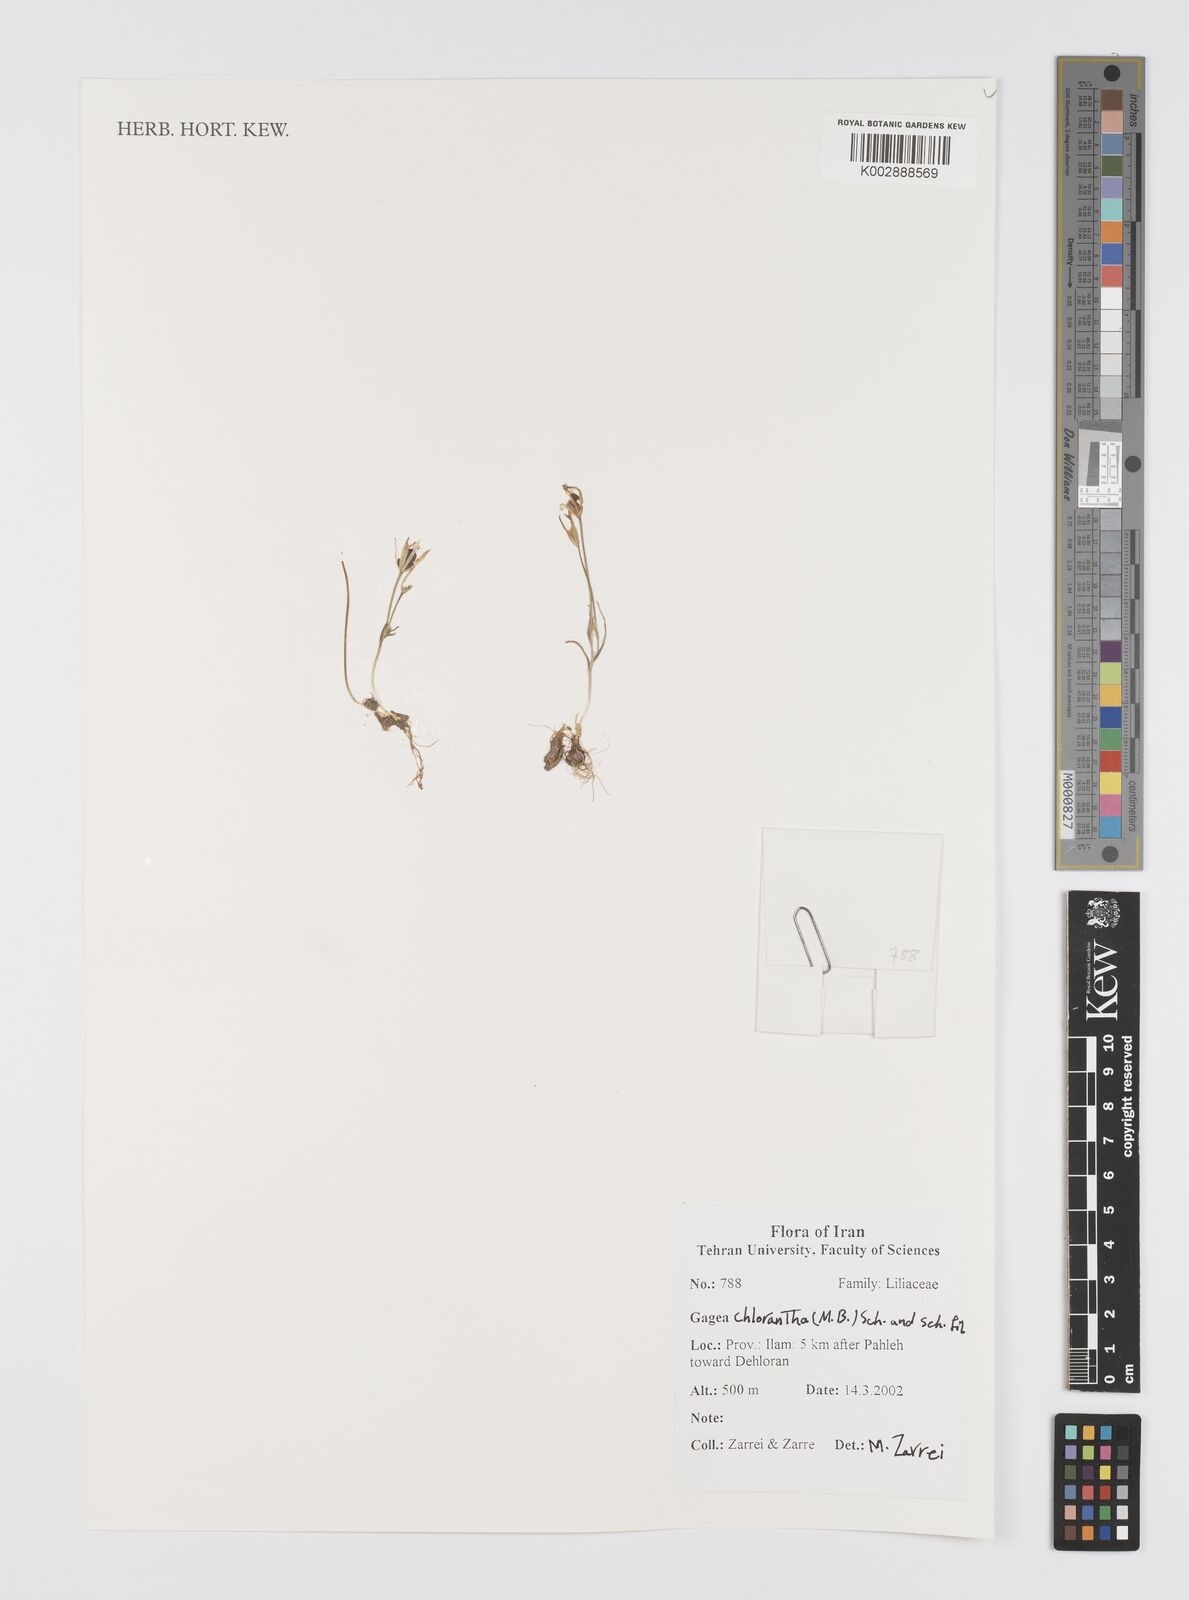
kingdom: Plantae
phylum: Tracheophyta
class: Liliopsida
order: Liliales
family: Liliaceae
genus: Gagea
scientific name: Gagea chlorantha
